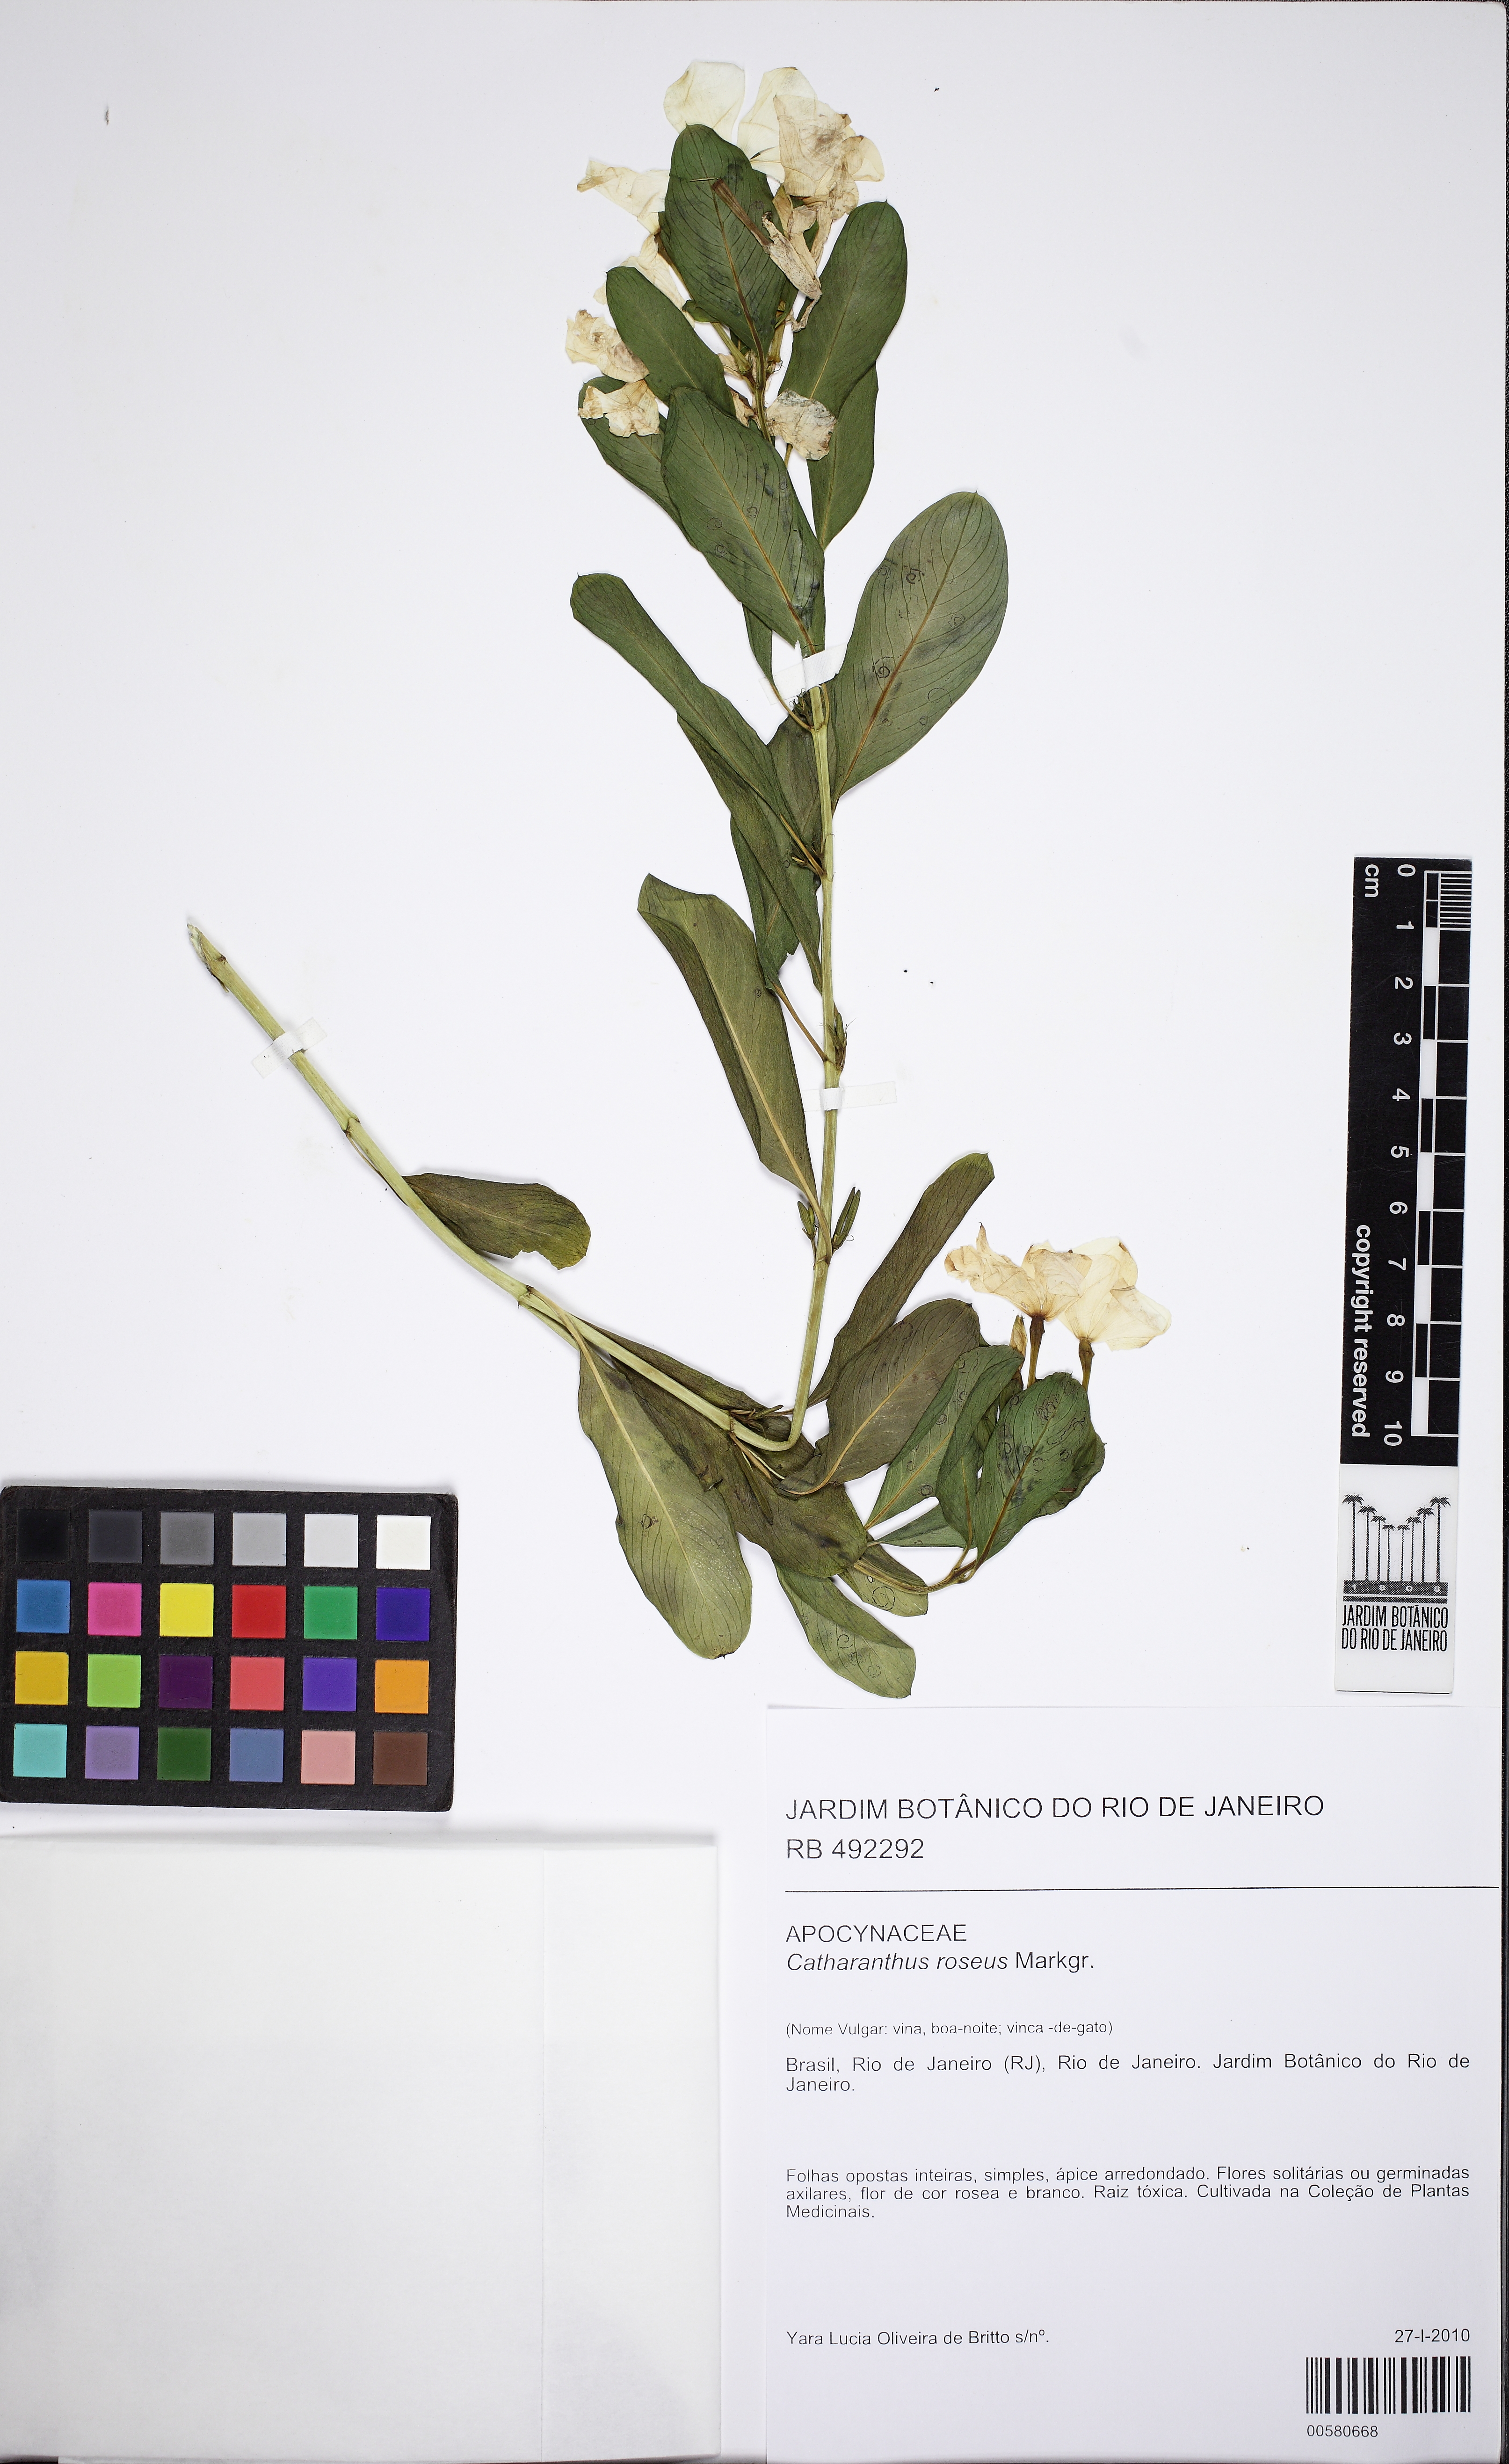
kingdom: Plantae
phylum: Tracheophyta
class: Magnoliopsida
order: Gentianales
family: Apocynaceae
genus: Catharanthus
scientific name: Catharanthus roseus
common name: Madagascar periwinkle
